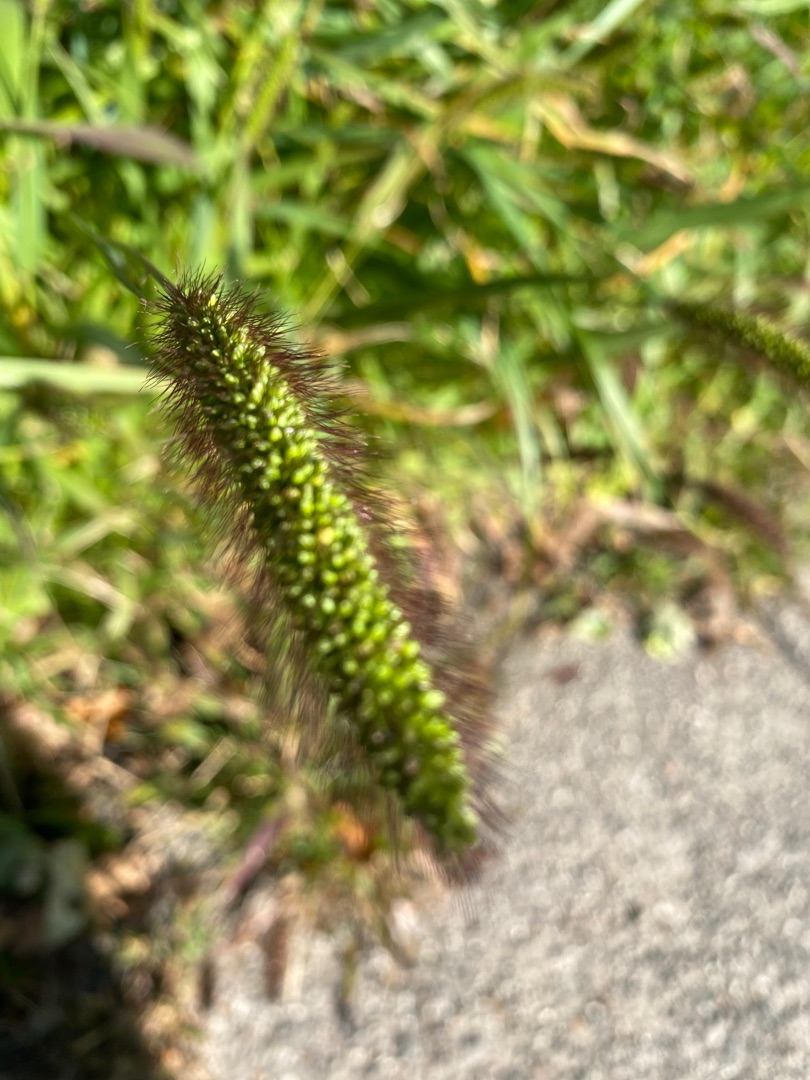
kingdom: Plantae
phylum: Tracheophyta
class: Liliopsida
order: Poales
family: Poaceae
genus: Setaria
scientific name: Setaria viridis
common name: Grøn skærmaks
